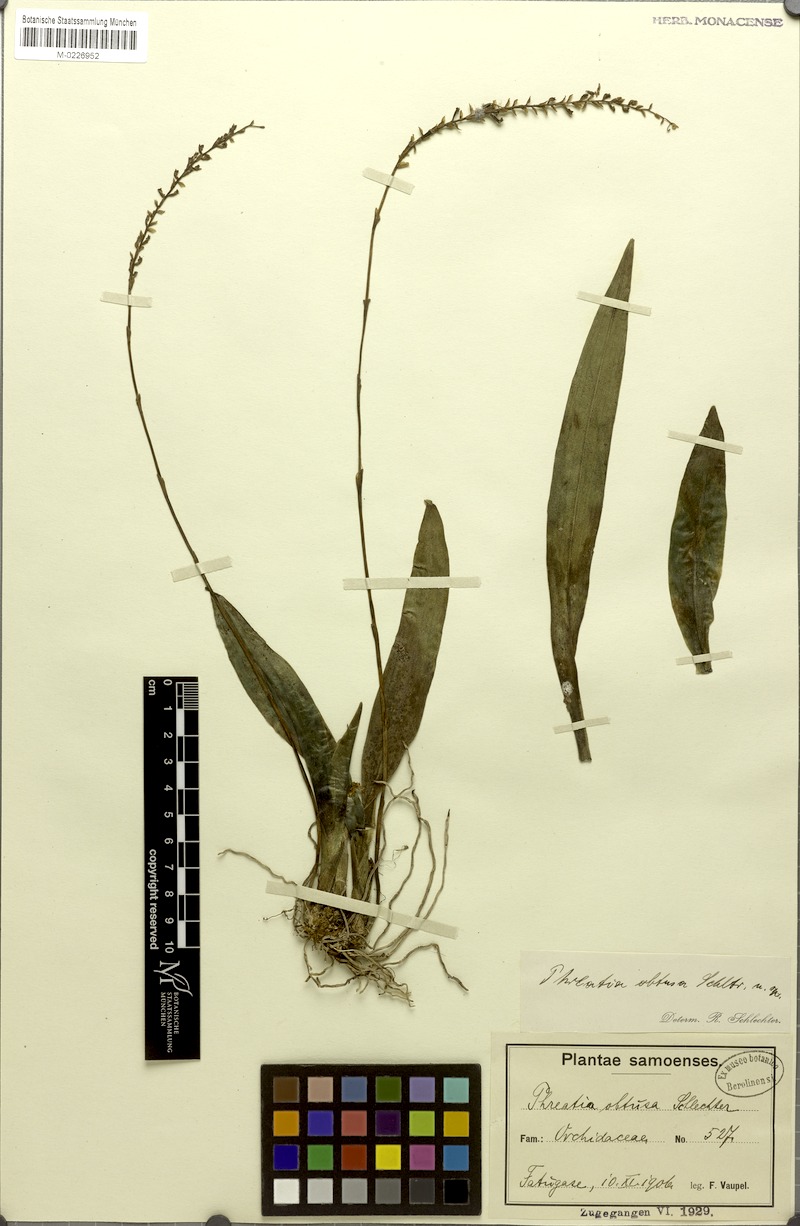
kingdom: Plantae
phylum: Tracheophyta
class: Liliopsida
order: Asparagales
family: Orchidaceae
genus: Phreatia
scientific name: Phreatia paleata
